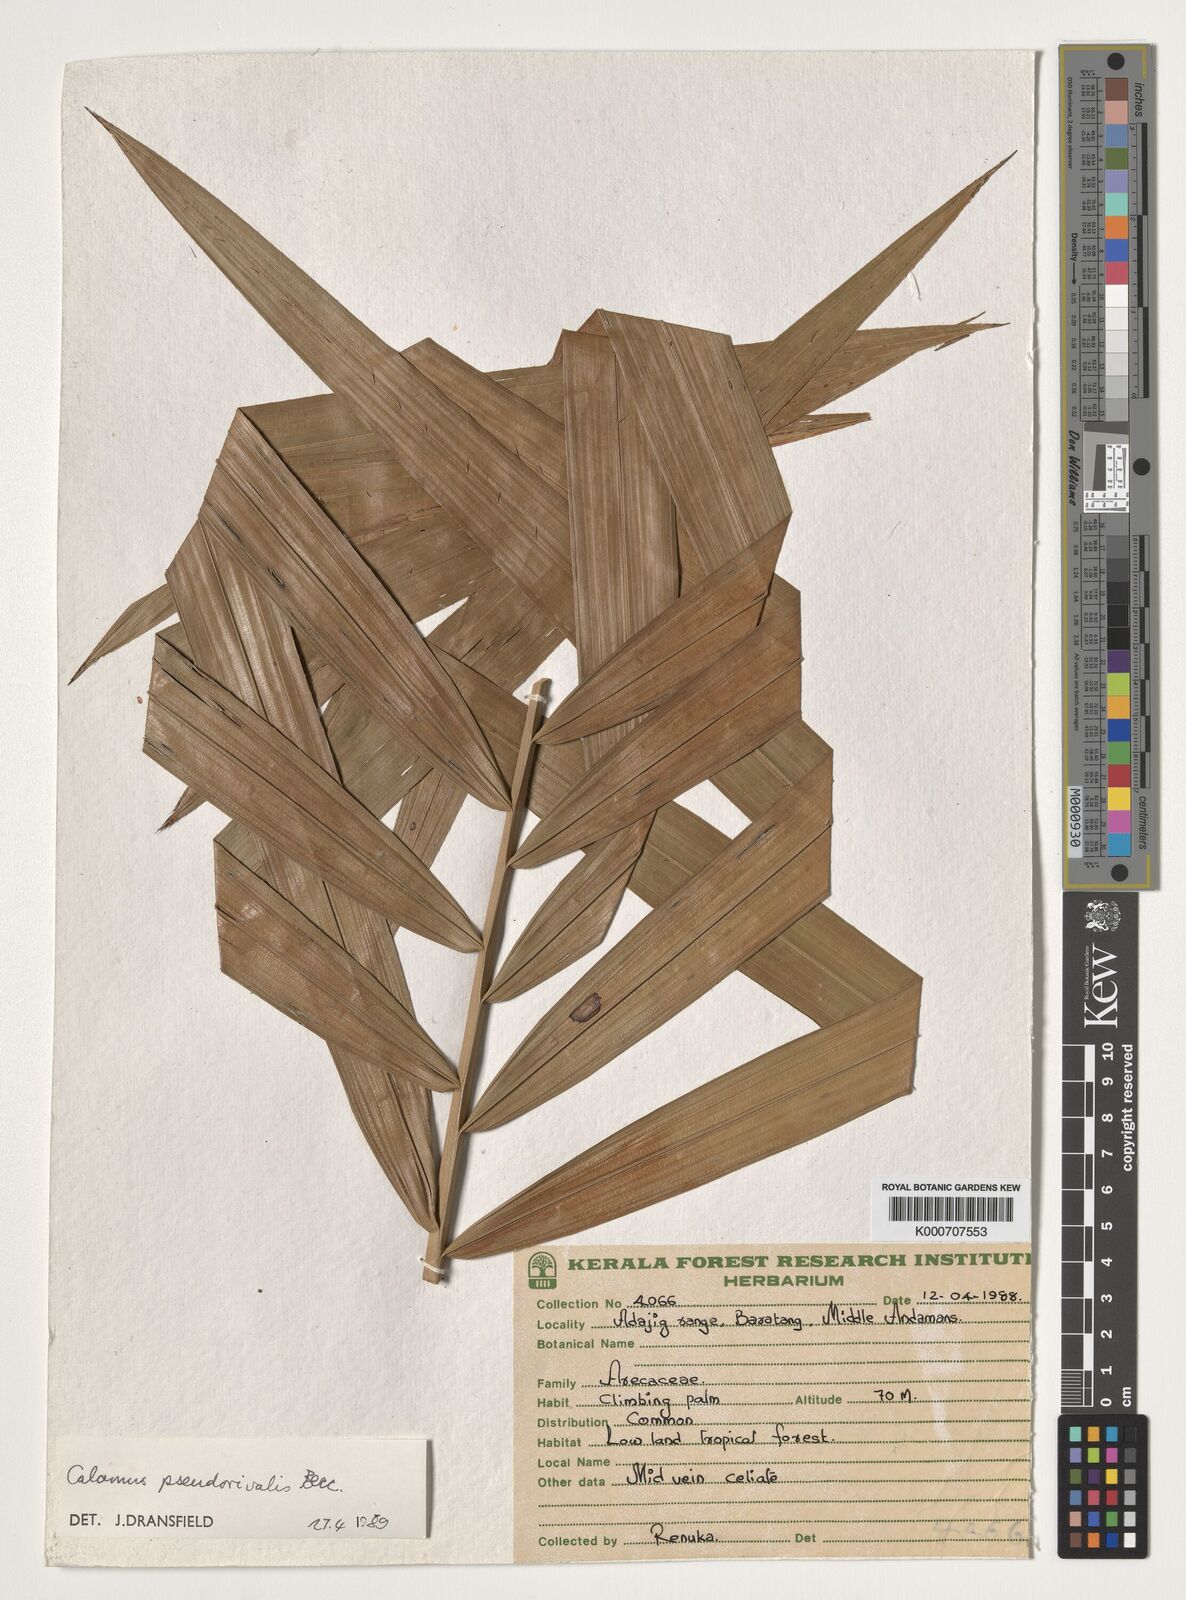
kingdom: Plantae
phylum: Tracheophyta
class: Liliopsida
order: Arecales
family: Arecaceae
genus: Calamus
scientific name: Calamus nicobaricus
